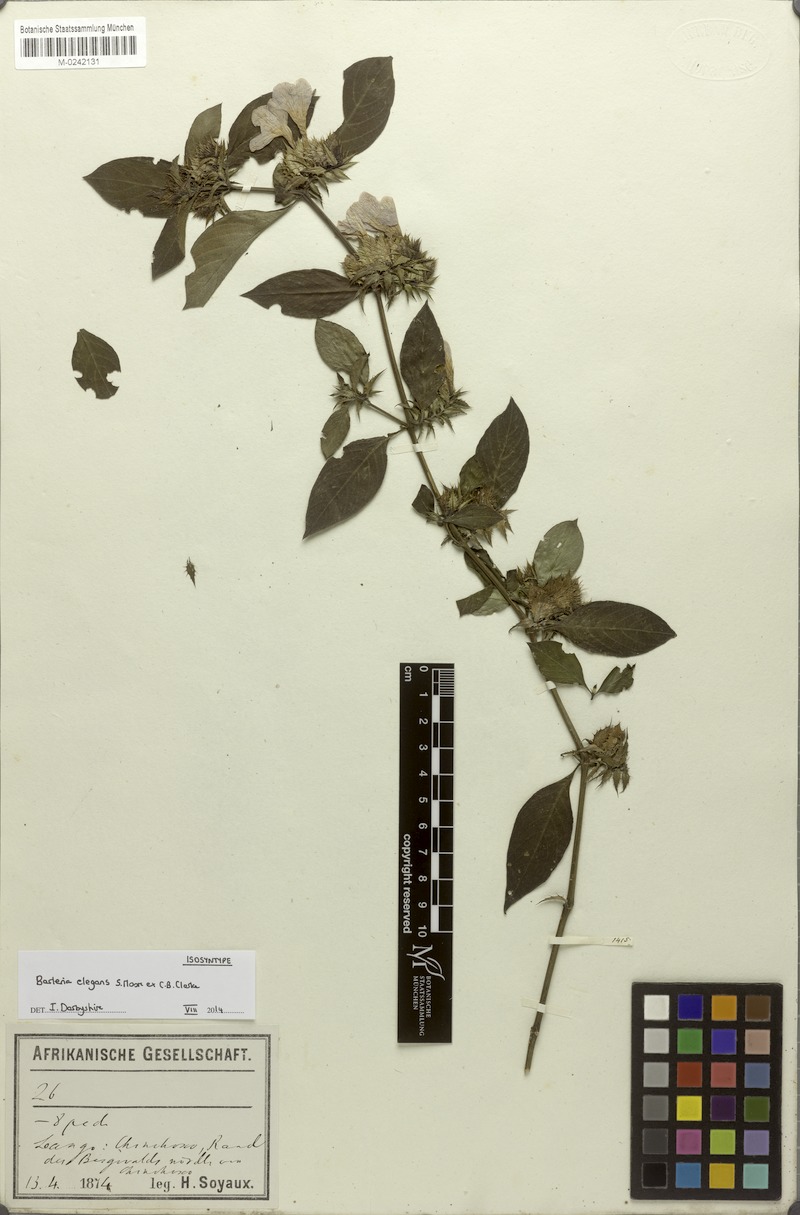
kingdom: Plantae
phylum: Tracheophyta
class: Magnoliopsida
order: Lamiales
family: Acanthaceae
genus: Barleria
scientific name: Barleria elegans
